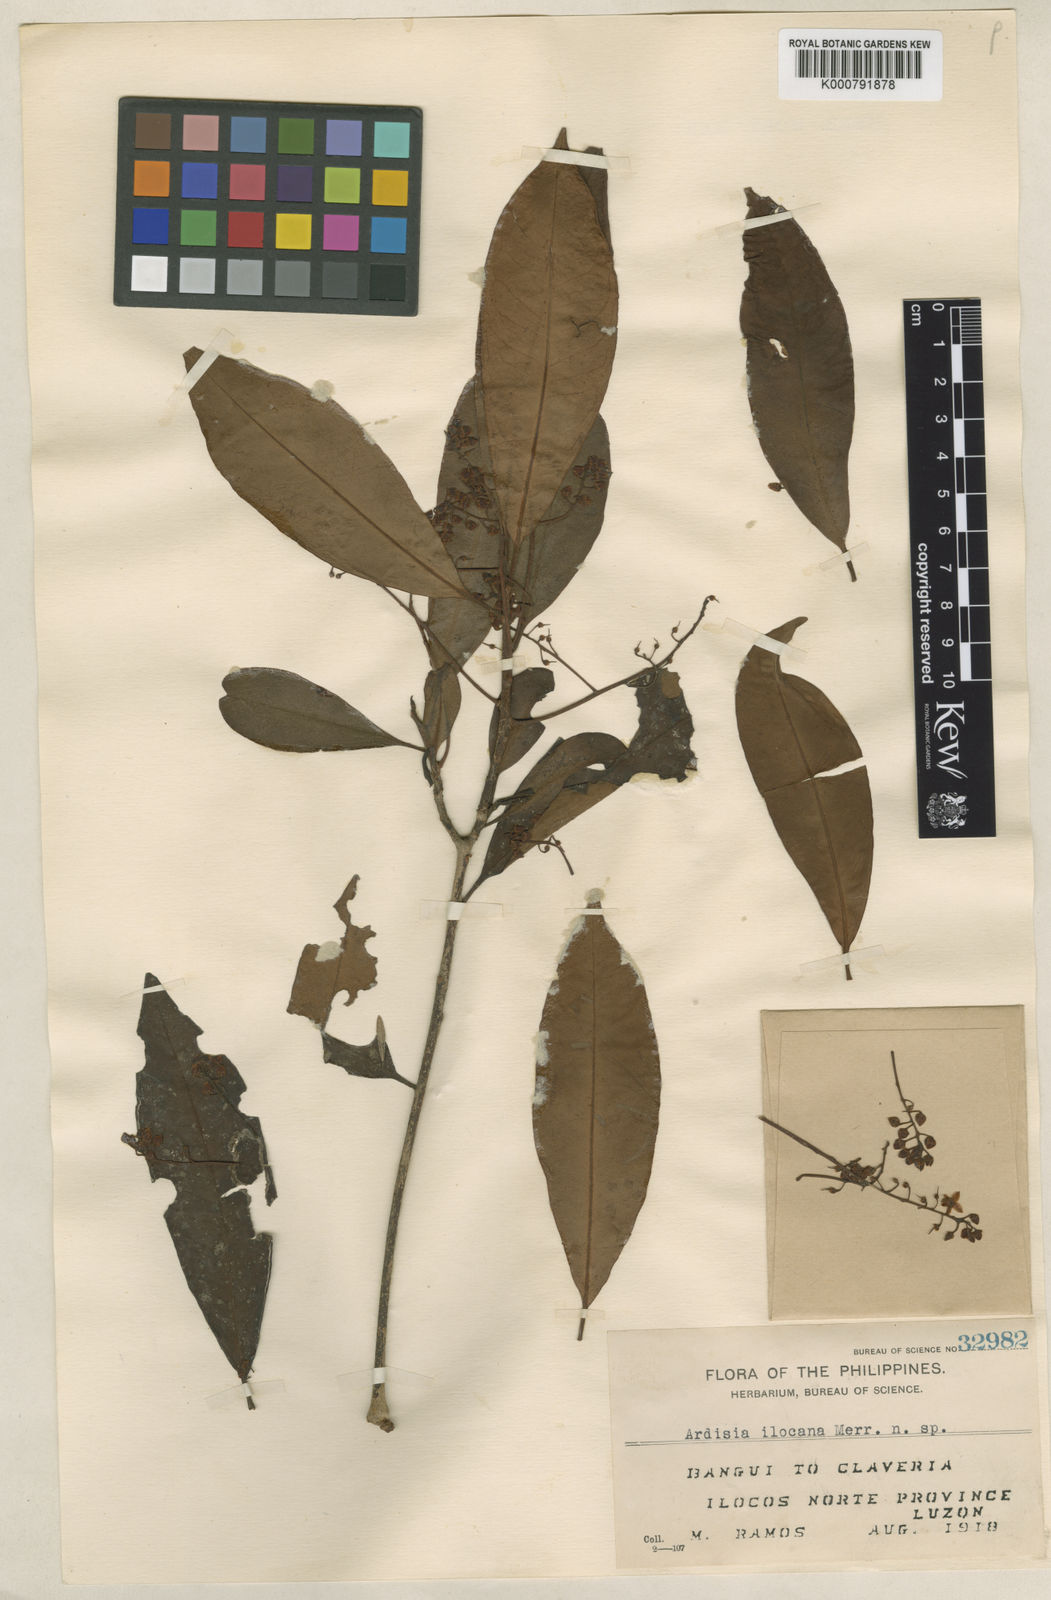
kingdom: Plantae
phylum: Tracheophyta
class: Magnoliopsida
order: Ericales
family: Primulaceae
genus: Ardisia
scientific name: Ardisia ilocana
